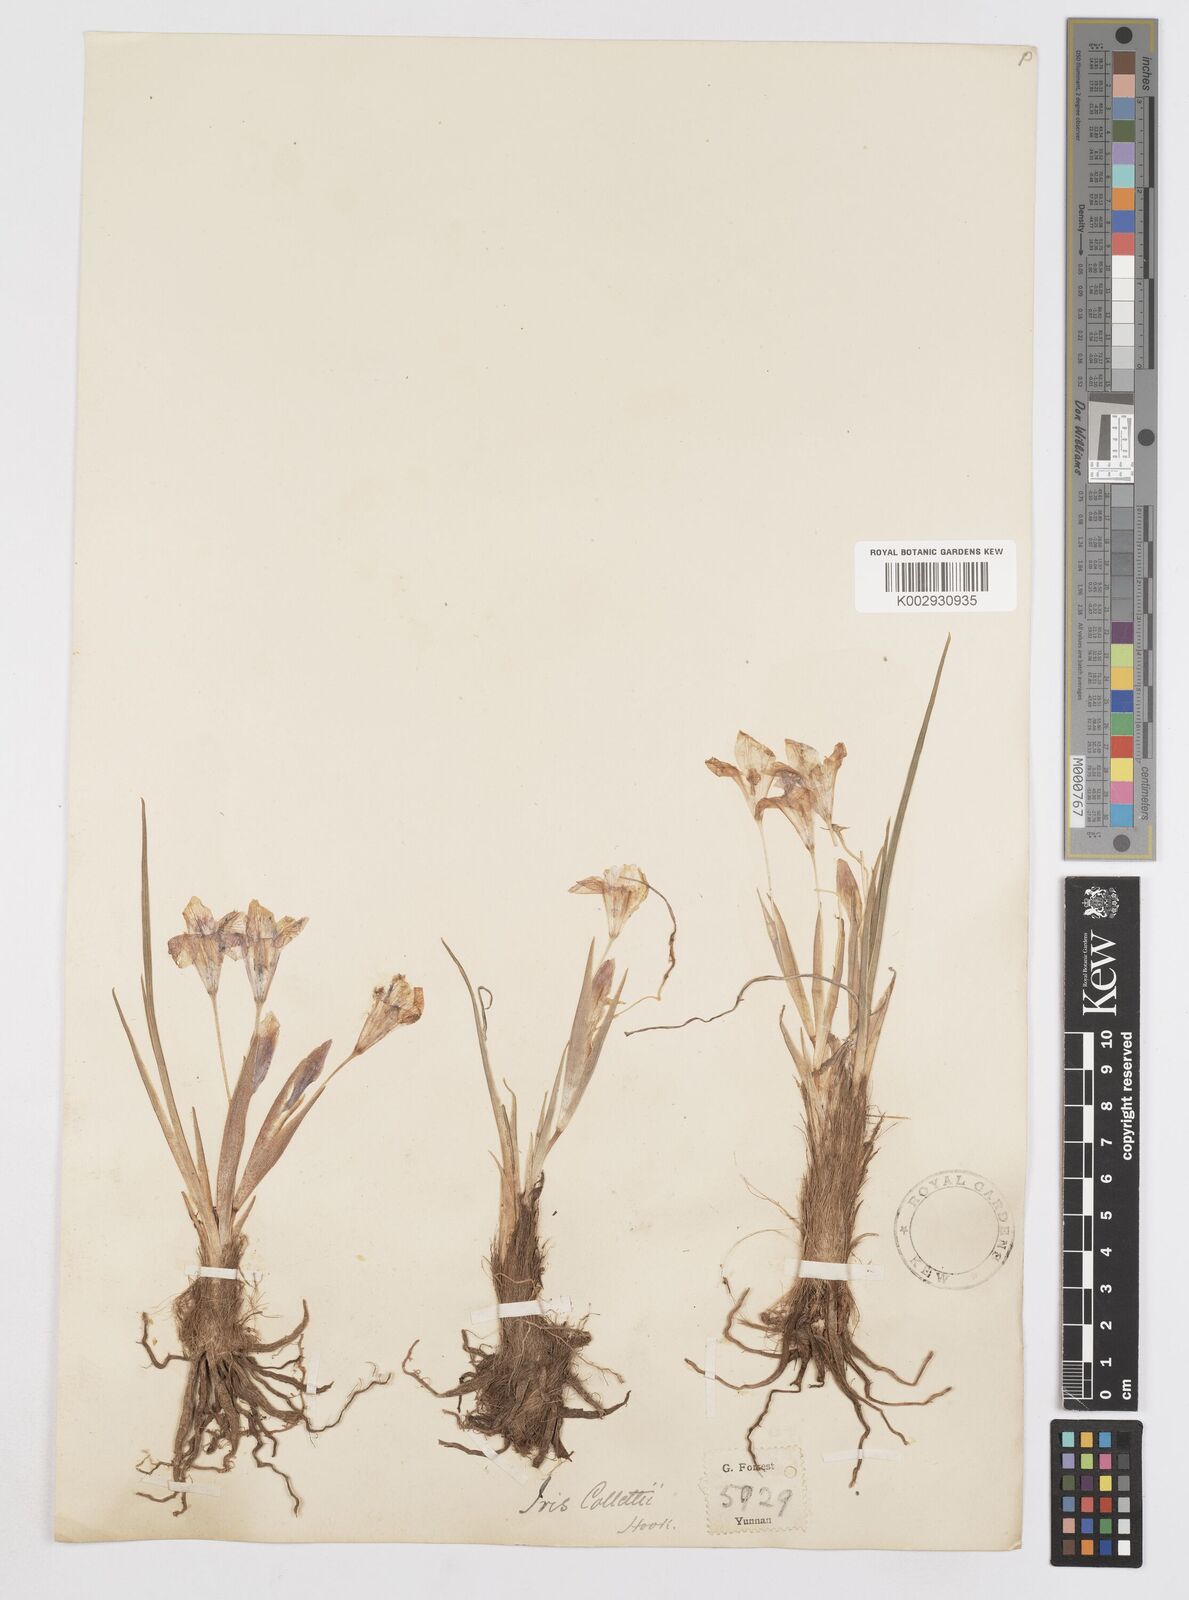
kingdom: Plantae
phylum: Tracheophyta
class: Liliopsida
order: Asparagales
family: Iridaceae
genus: Iris
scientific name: Iris collettii
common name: Plateau iris
